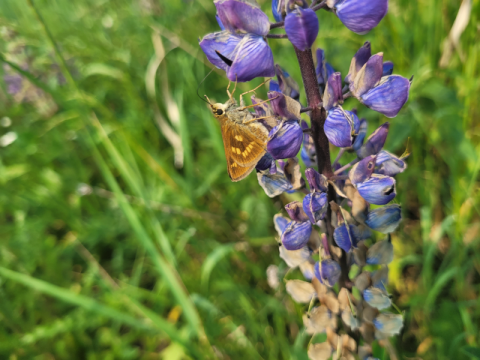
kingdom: Animalia
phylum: Arthropoda
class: Insecta
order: Lepidoptera
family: Hesperiidae
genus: Polites
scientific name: Polites
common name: Long Dash Skipper
